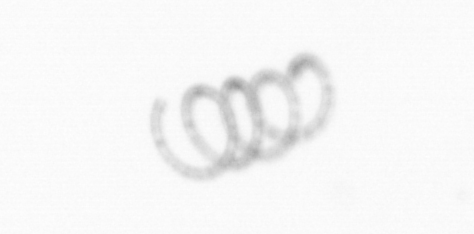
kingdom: Chromista
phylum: Ochrophyta
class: Bacillariophyceae
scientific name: Bacillariophyceae
